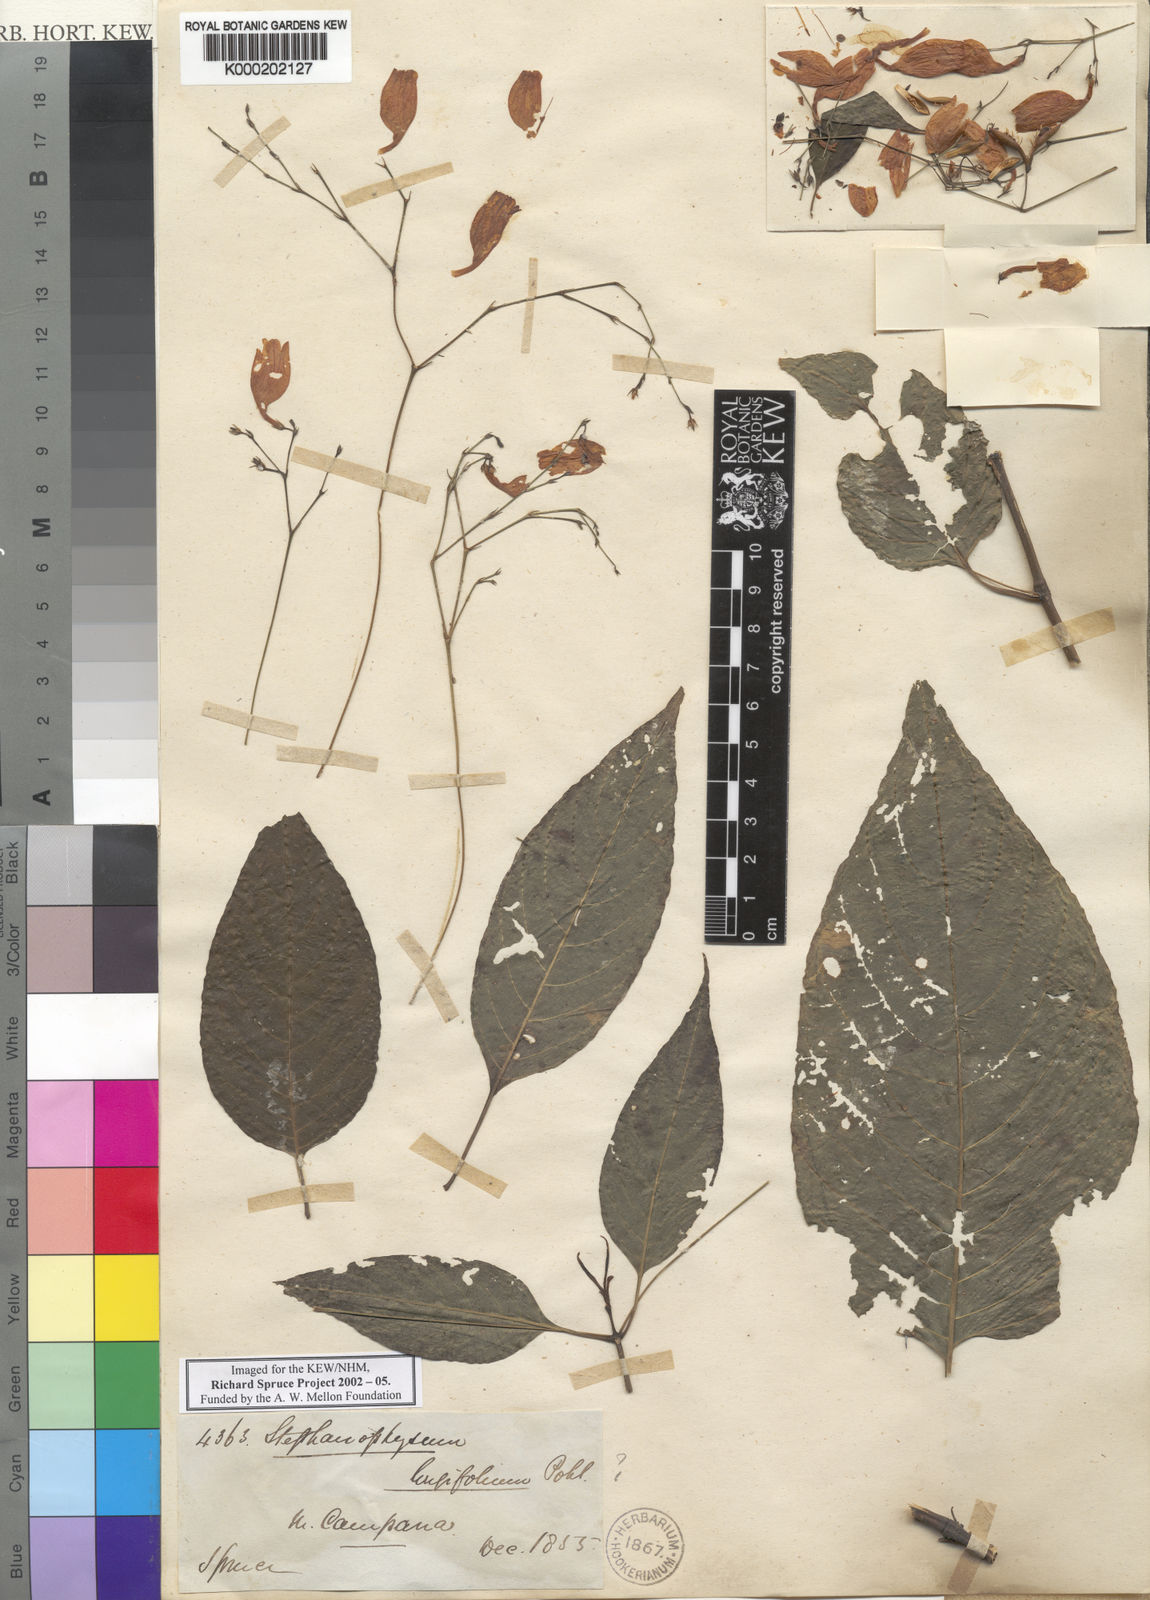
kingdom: Plantae
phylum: Tracheophyta
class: Magnoliopsida
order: Lamiales
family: Acanthaceae
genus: Ruellia
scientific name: Ruellia brevifolia
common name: Tropical wild petunia
